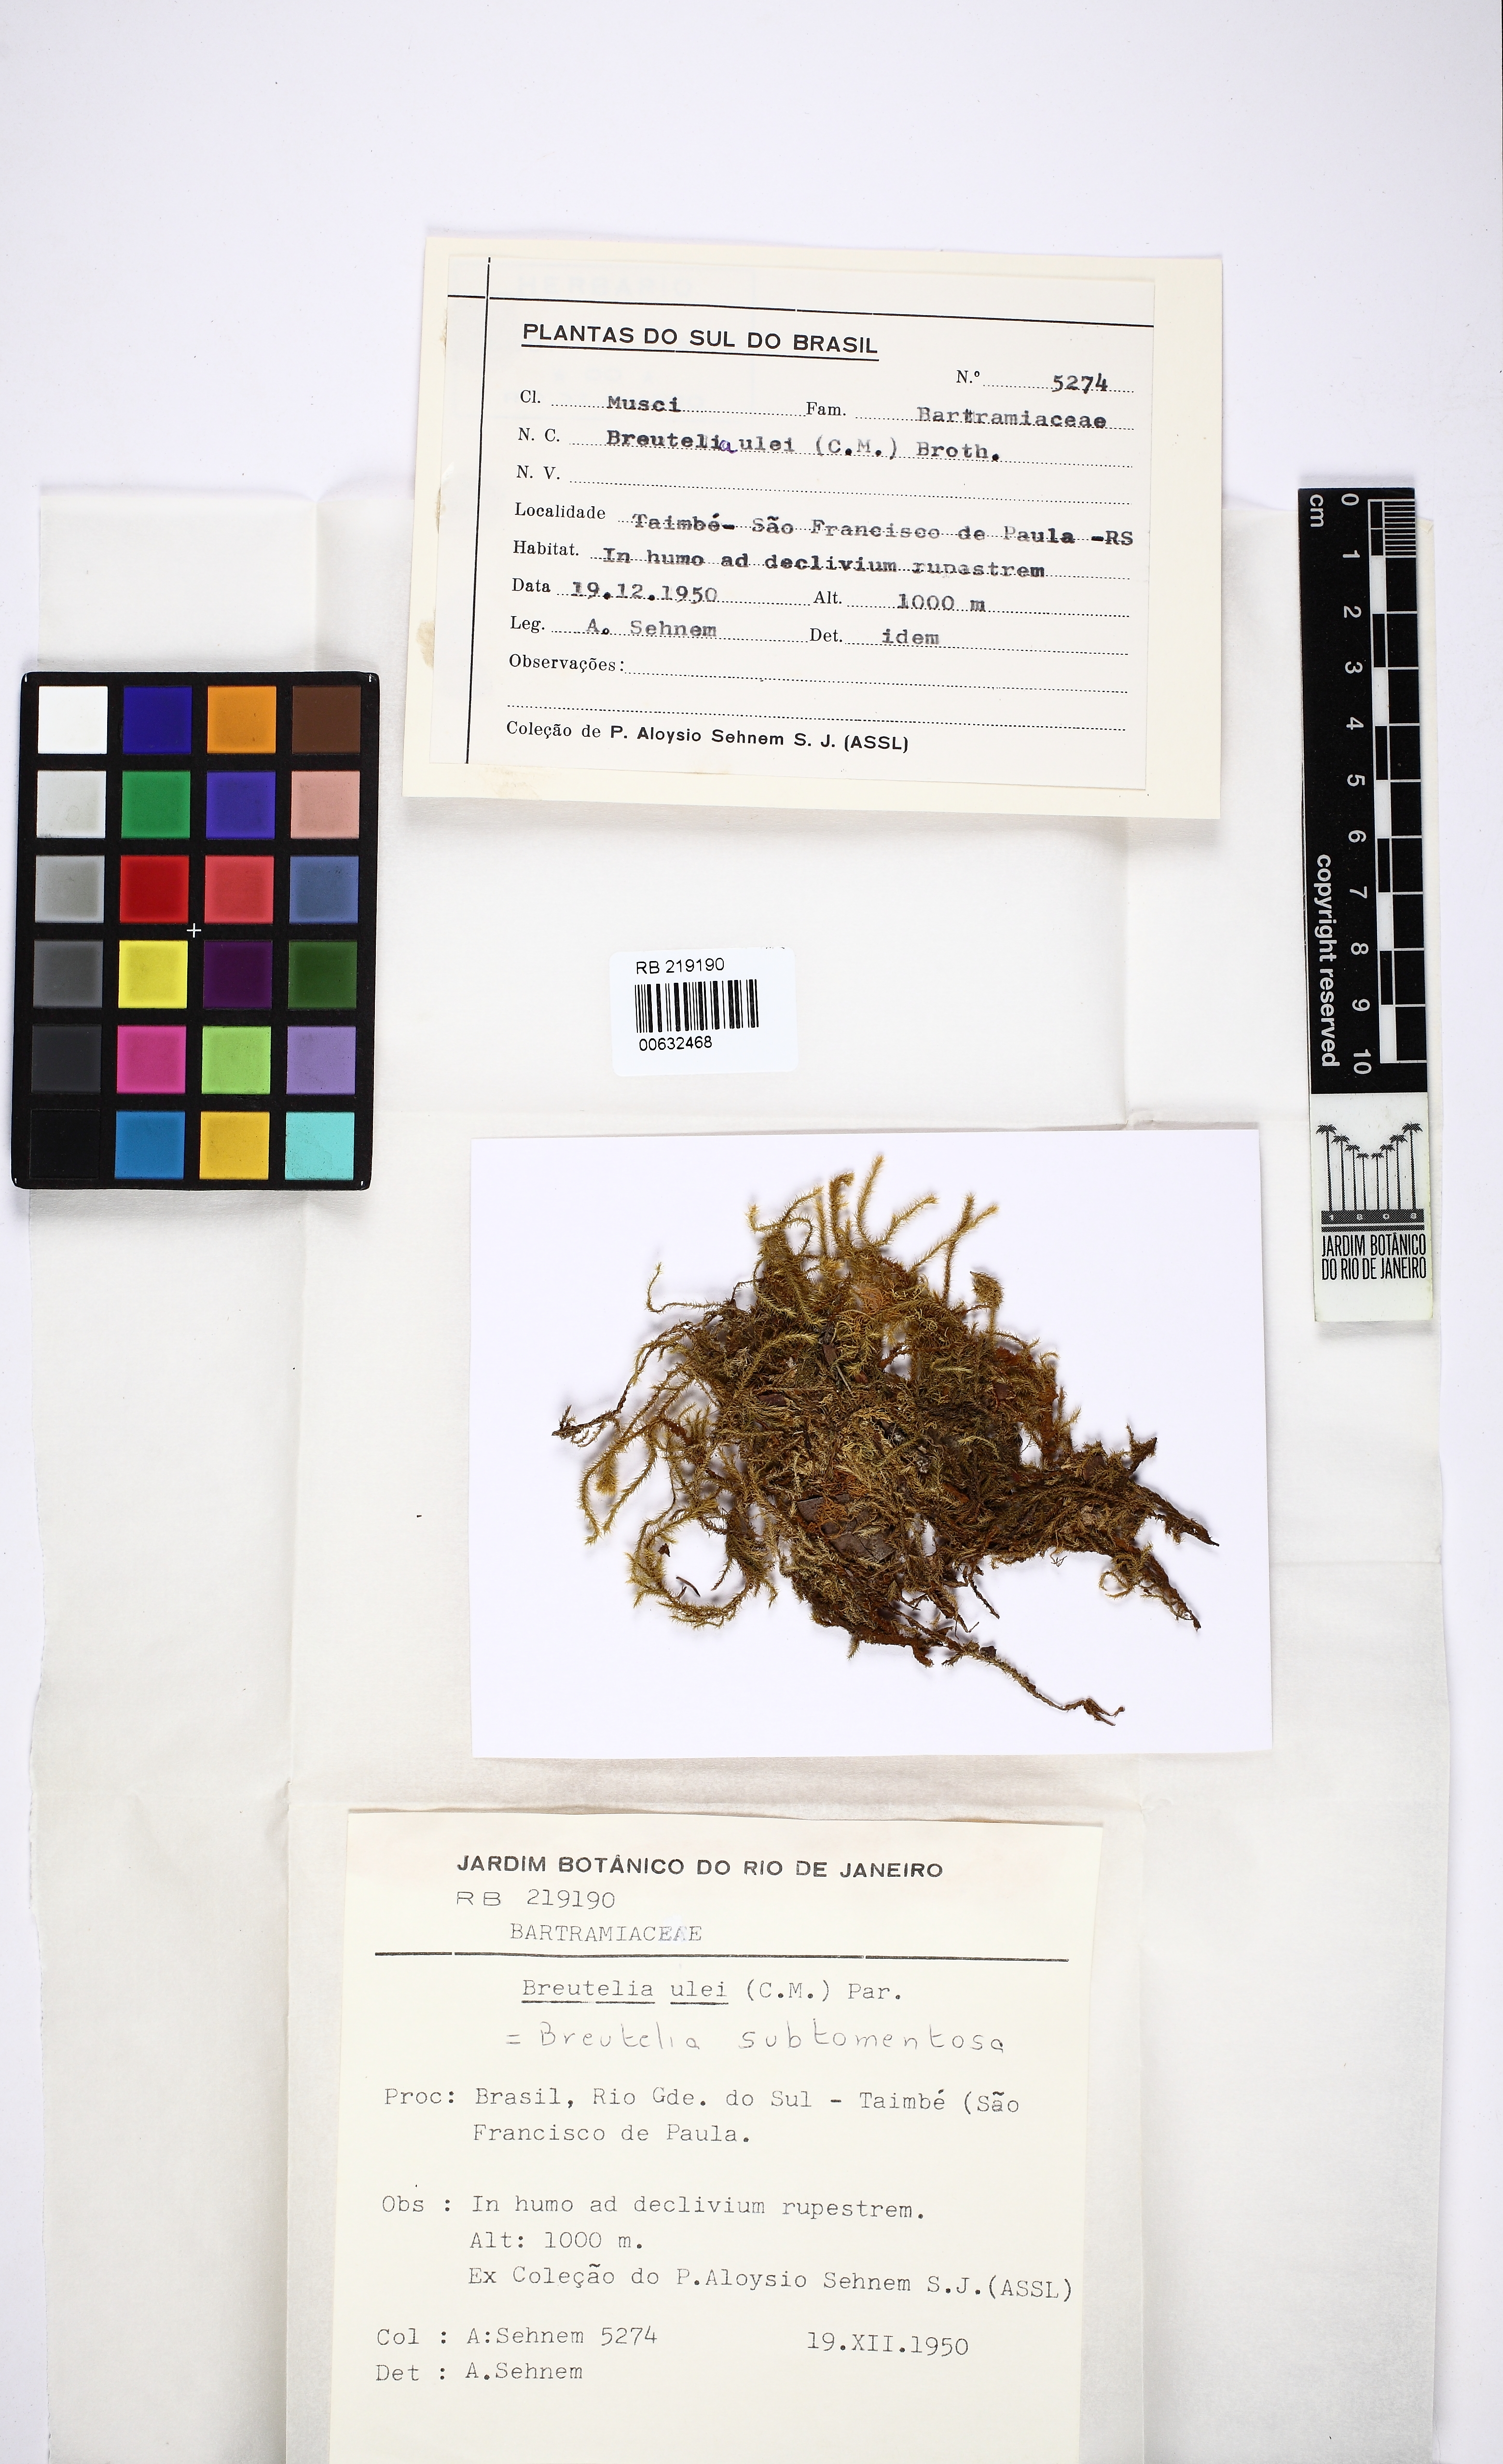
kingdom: Plantae
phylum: Bryophyta
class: Bryopsida
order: Bartramiales
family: Bartramiaceae
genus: Breutelia
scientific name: Breutelia subtomentosa
